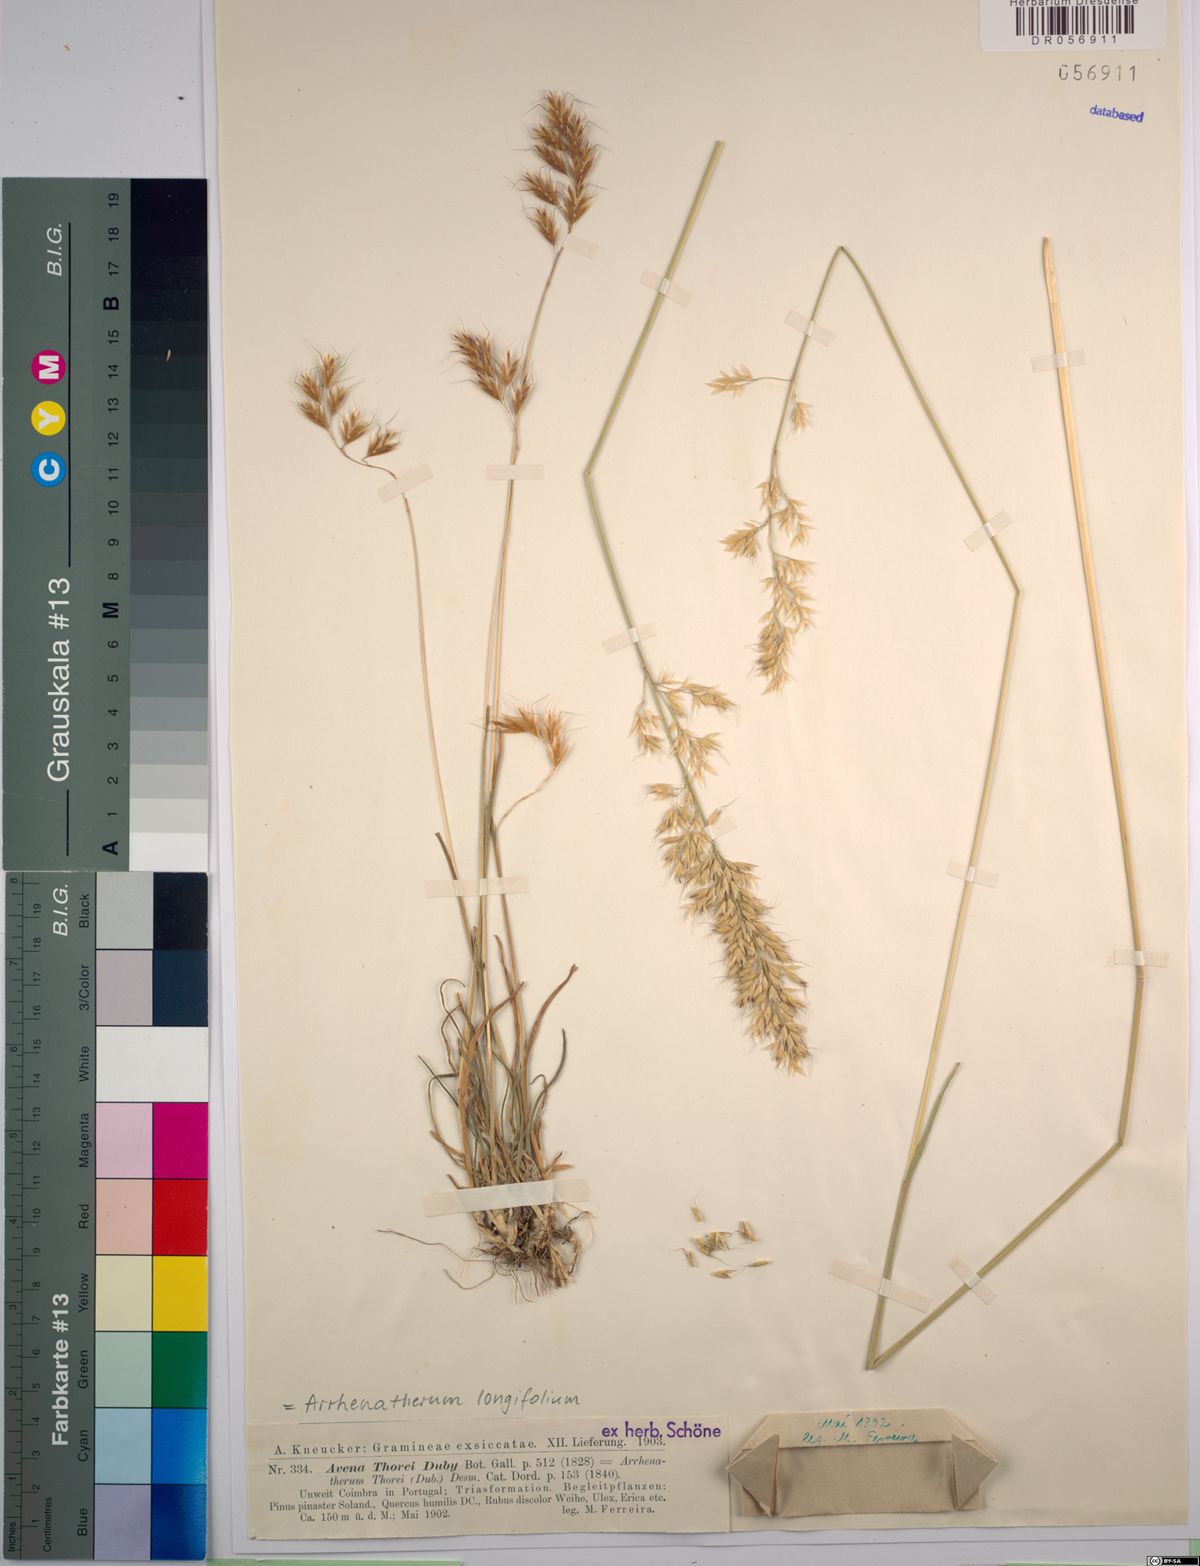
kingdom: Plantae
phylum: Tracheophyta
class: Liliopsida
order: Poales
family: Poaceae
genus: Arrhenatherum
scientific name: Arrhenatherum longifolium
